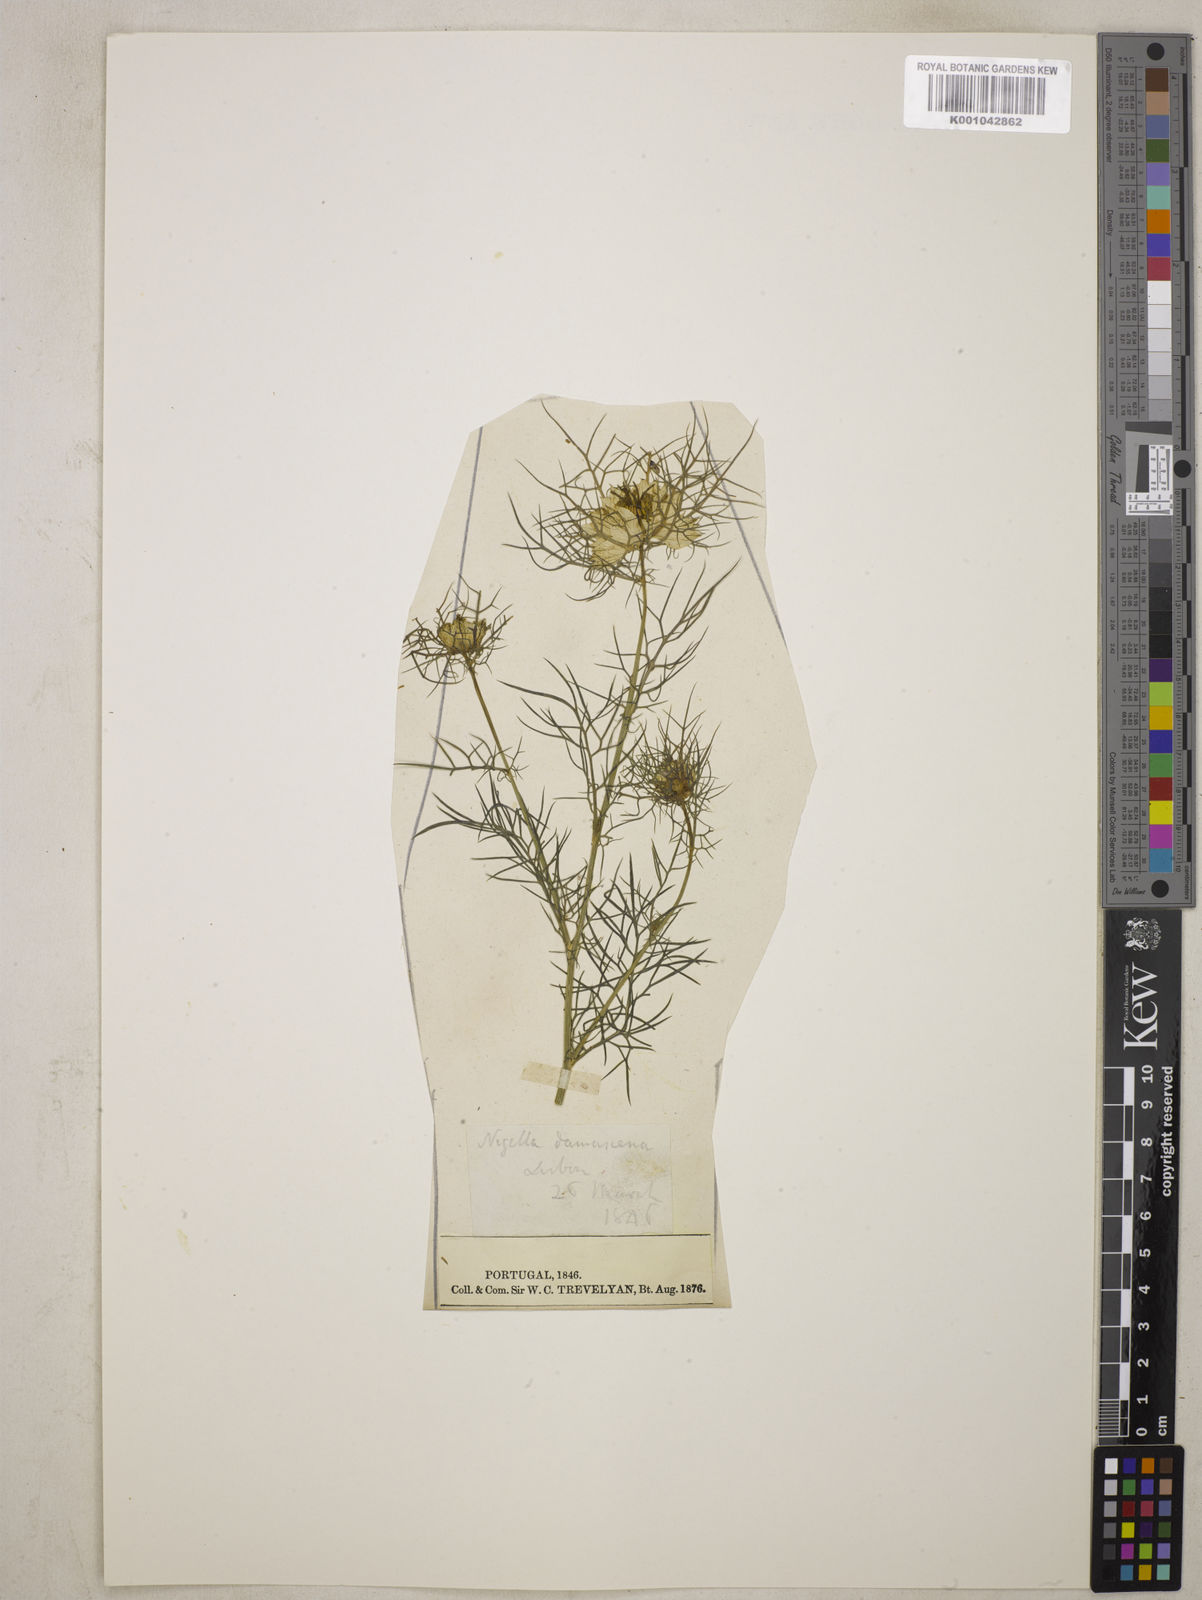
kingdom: Plantae
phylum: Tracheophyta
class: Magnoliopsida
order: Ranunculales
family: Ranunculaceae
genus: Nigella
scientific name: Nigella damascena
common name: Love-in-a-mist
